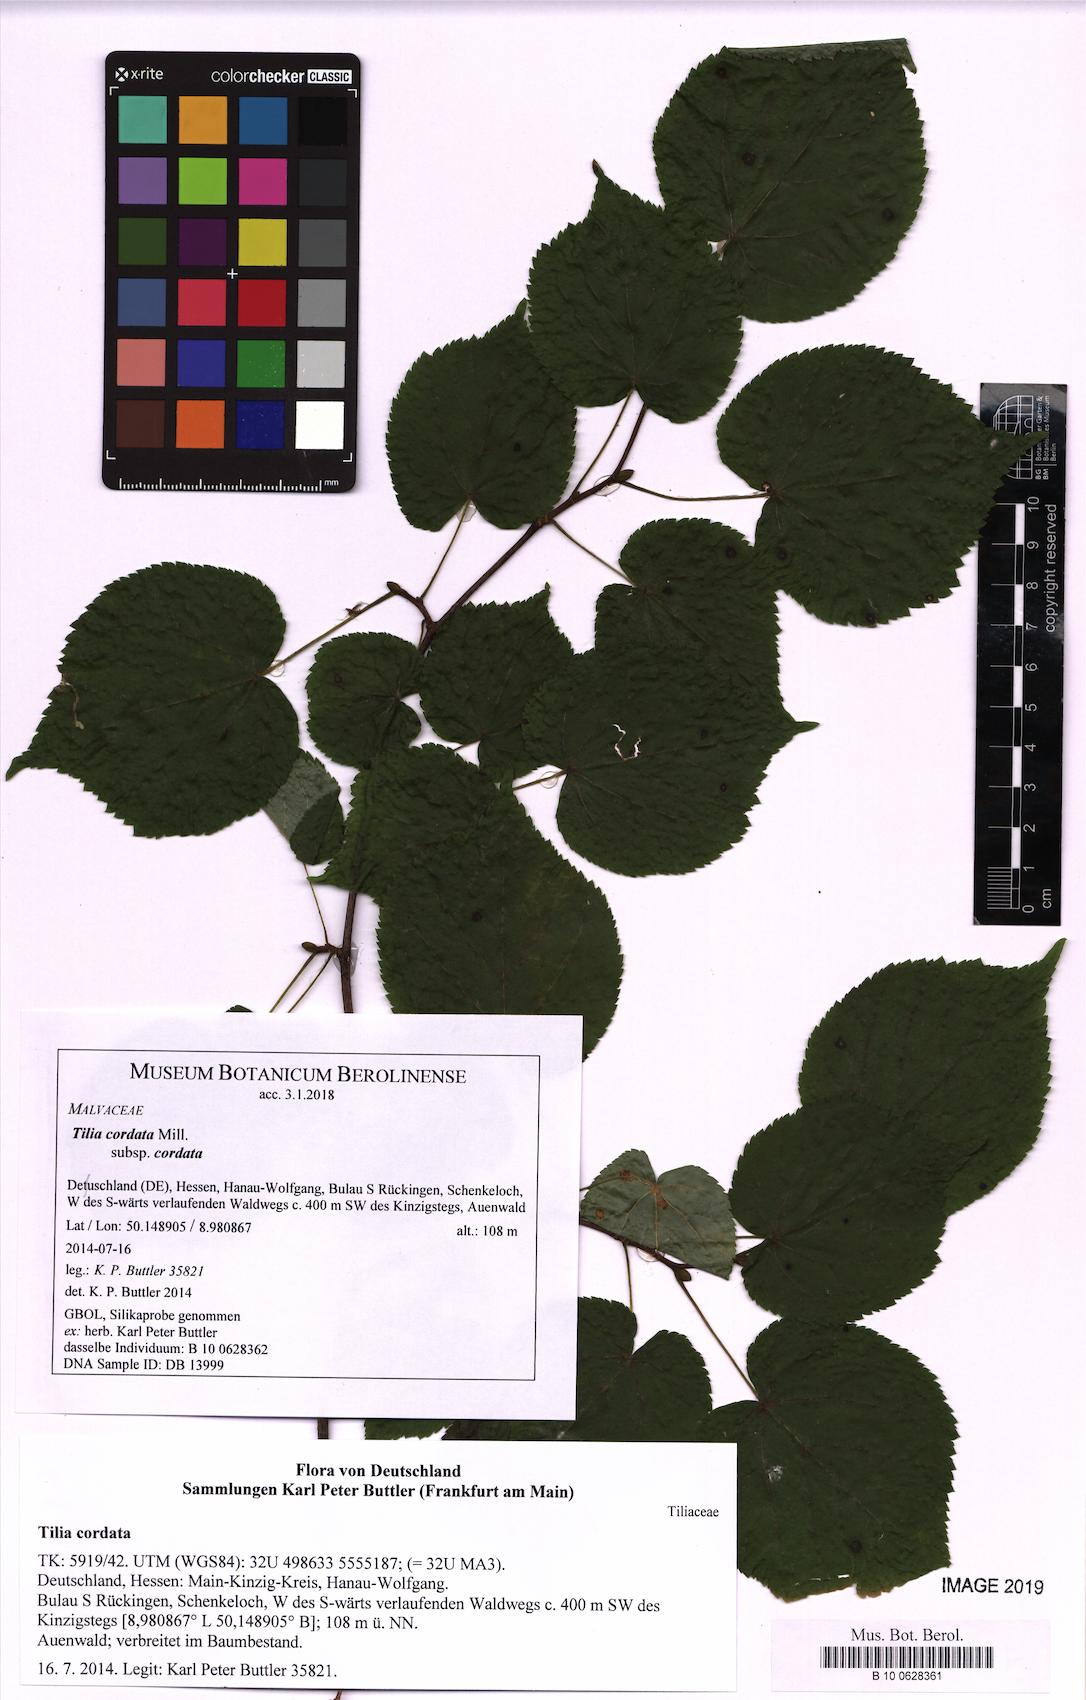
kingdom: Plantae
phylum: Tracheophyta
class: Magnoliopsida
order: Malvales
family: Malvaceae
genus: Tilia
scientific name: Tilia cordata
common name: Small-leaved lime
